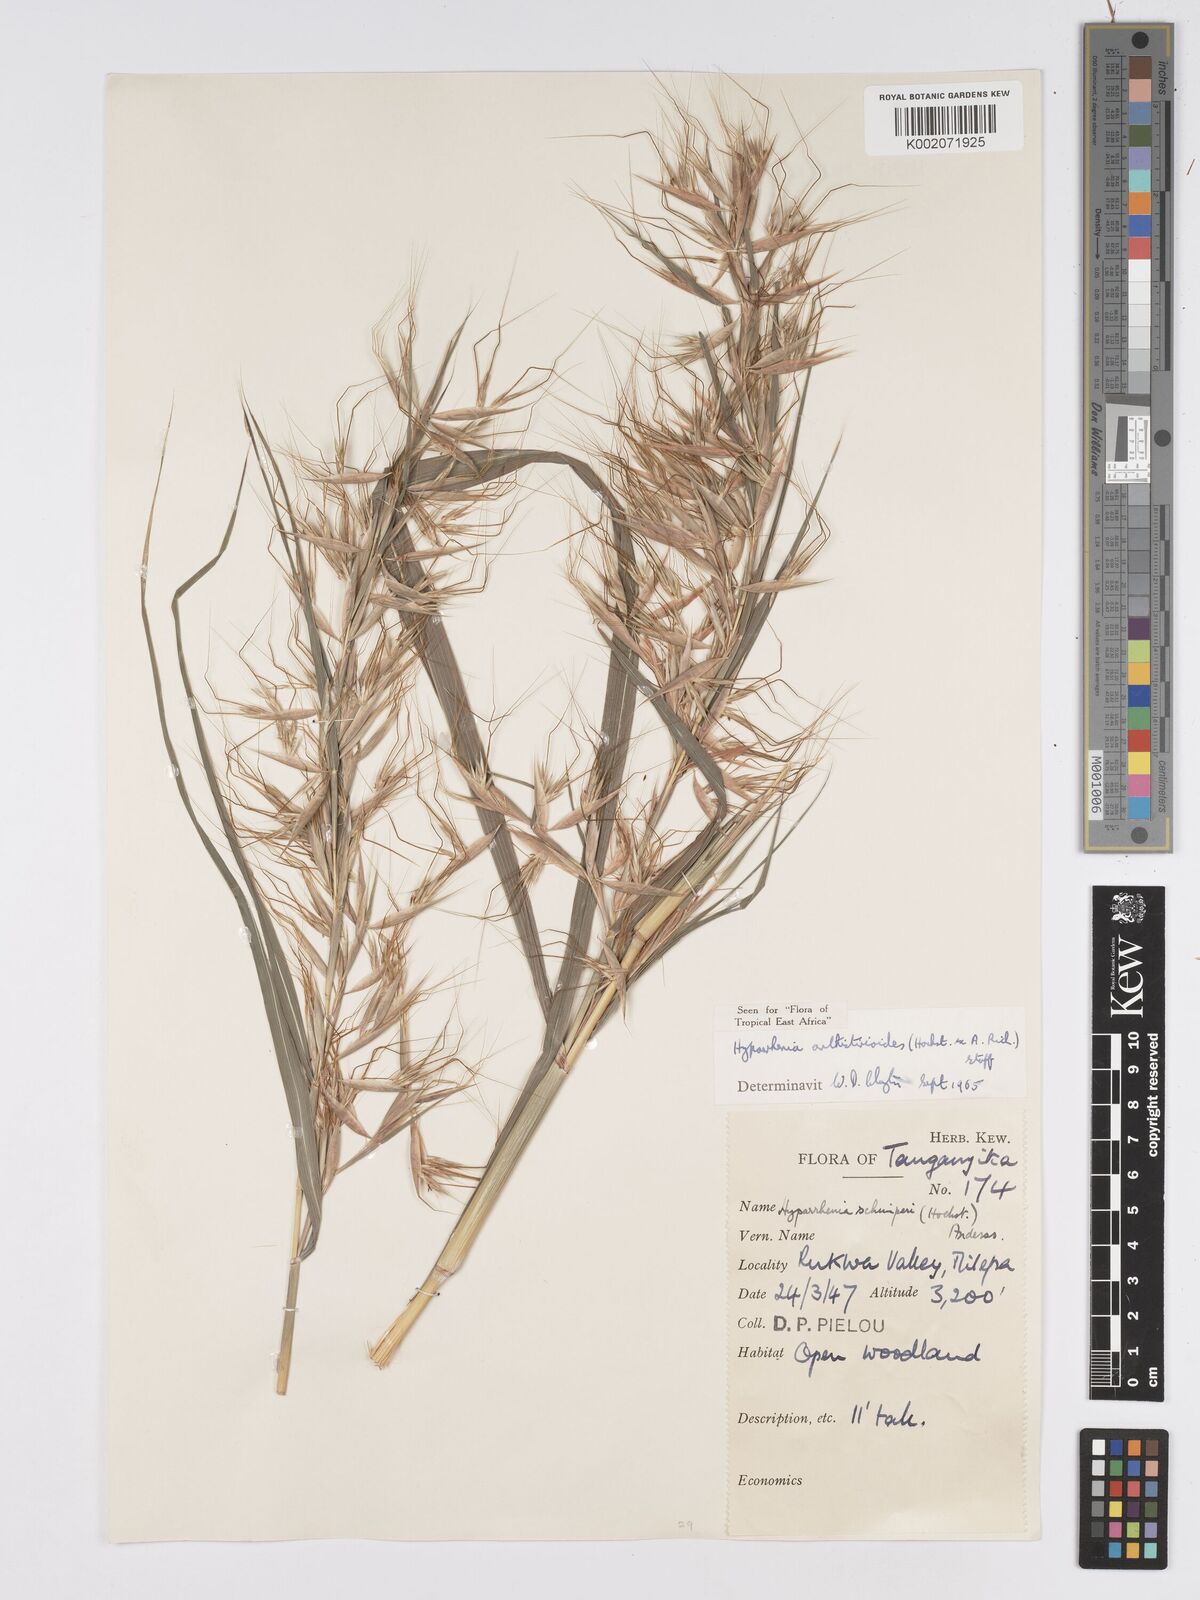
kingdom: Plantae
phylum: Tracheophyta
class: Liliopsida
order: Poales
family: Poaceae
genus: Hyparrhenia
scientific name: Hyparrhenia anthistirioides
